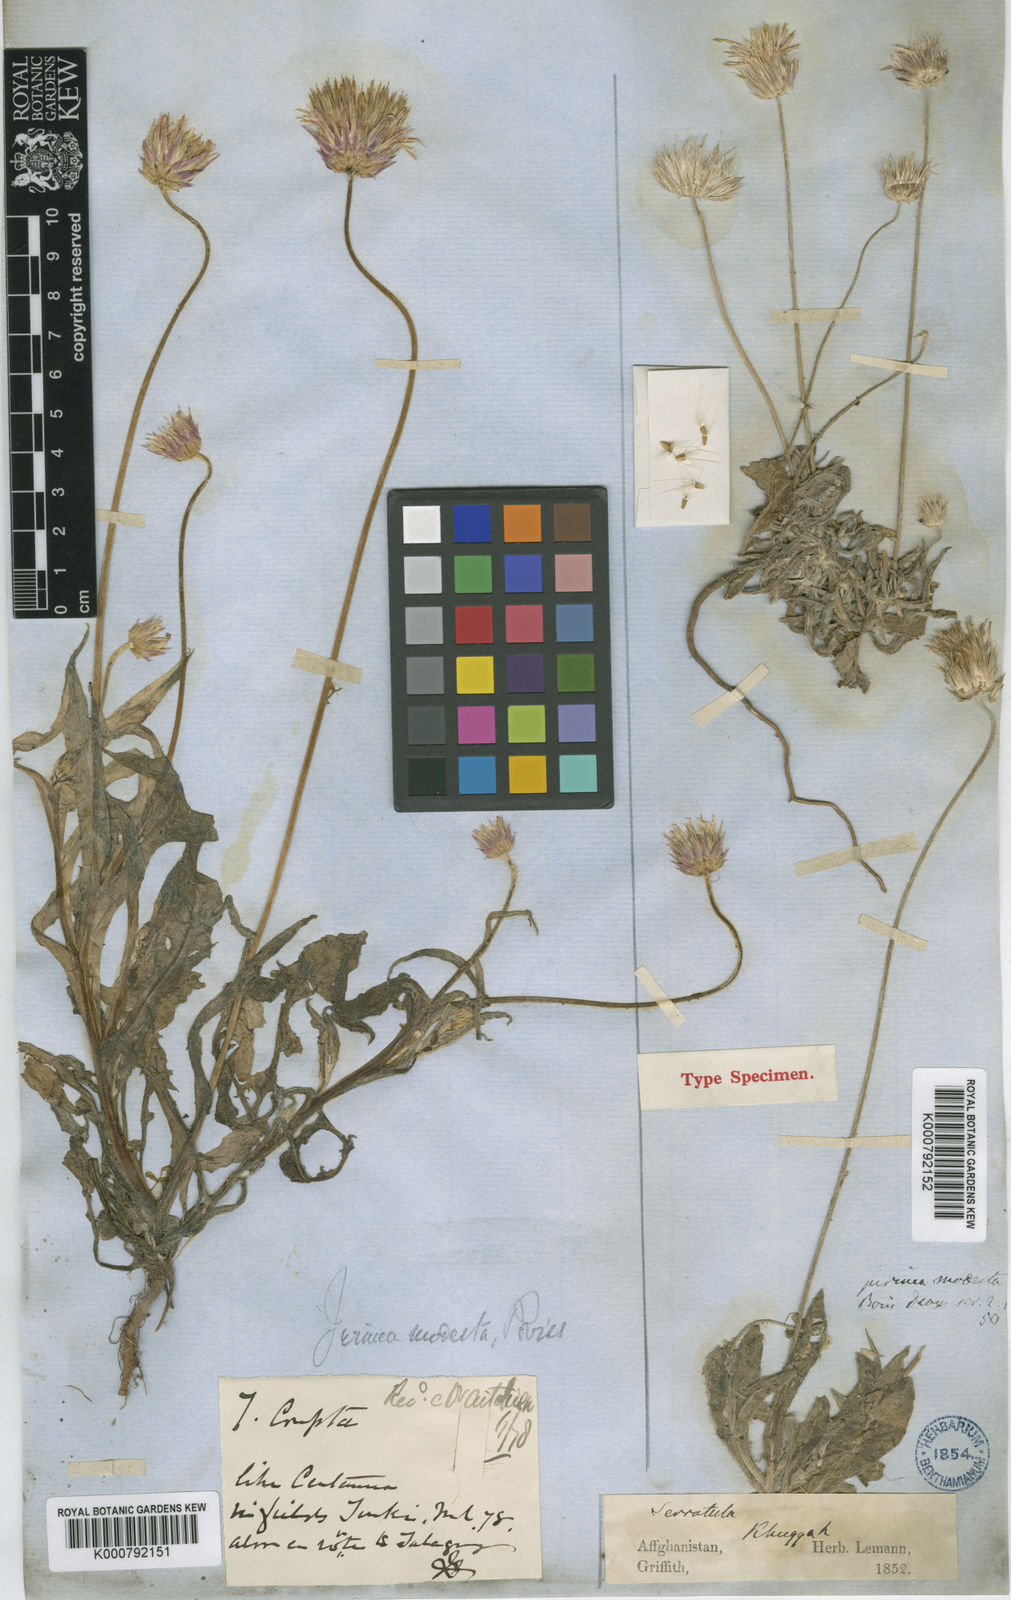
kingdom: Plantae
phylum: Tracheophyta
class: Magnoliopsida
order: Asterales
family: Asteraceae
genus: Jurinea
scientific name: Jurinea
